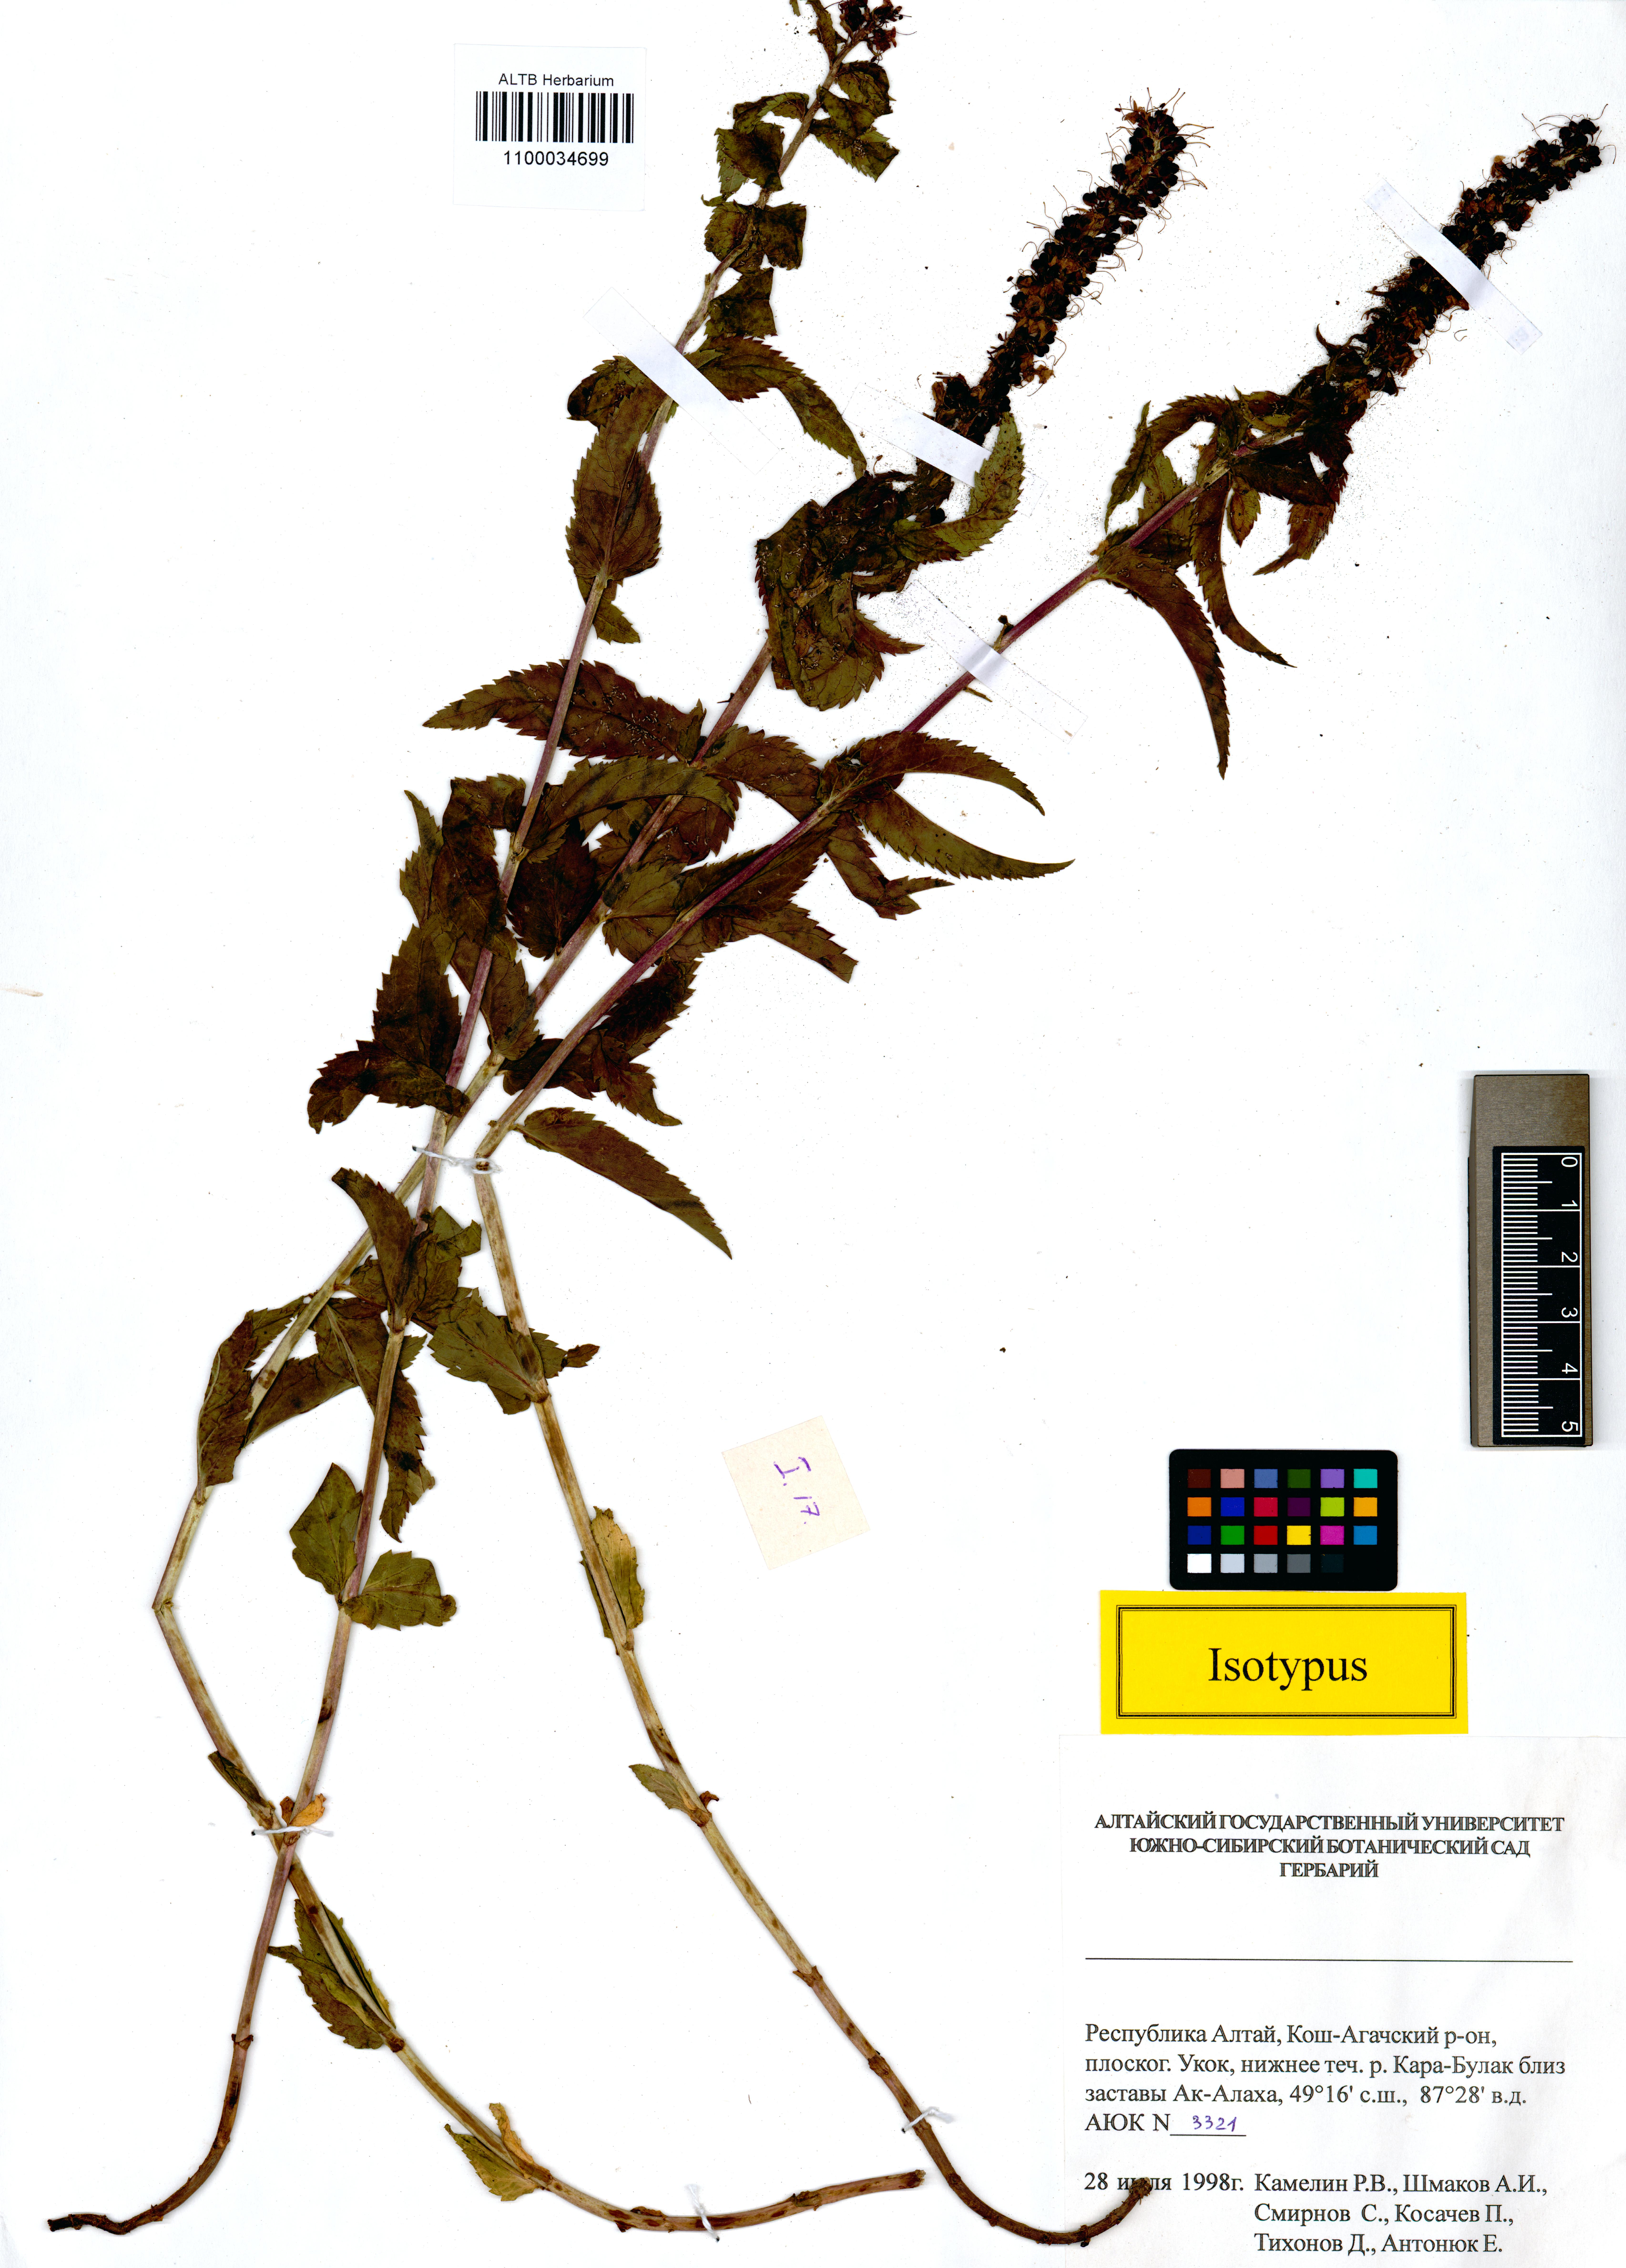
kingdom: Plantae
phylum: Tracheophyta
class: Magnoliopsida
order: Lamiales
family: Plantaginaceae
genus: Veronica
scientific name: Veronica schmakovii
